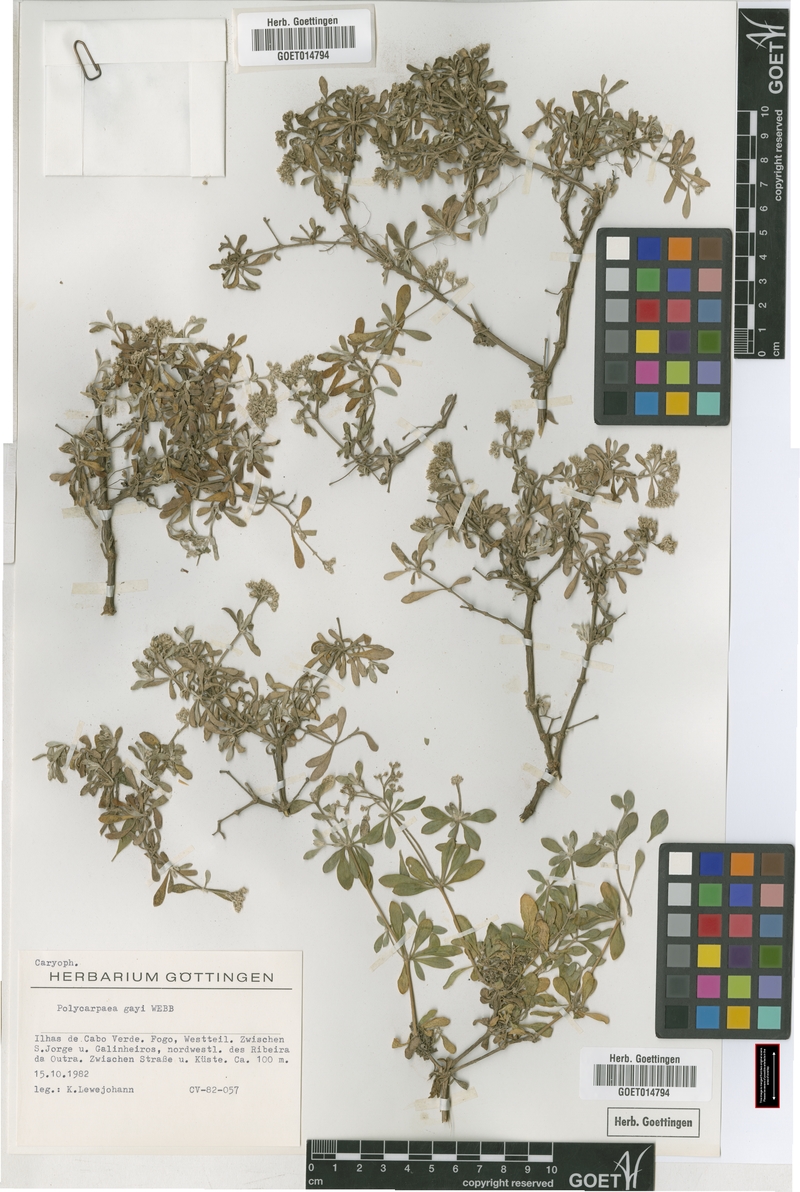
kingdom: Plantae
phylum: Tracheophyta
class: Magnoliopsida
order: Caryophyllales
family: Caryophyllaceae
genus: Polycarpaea
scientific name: Polycarpaea gayi
